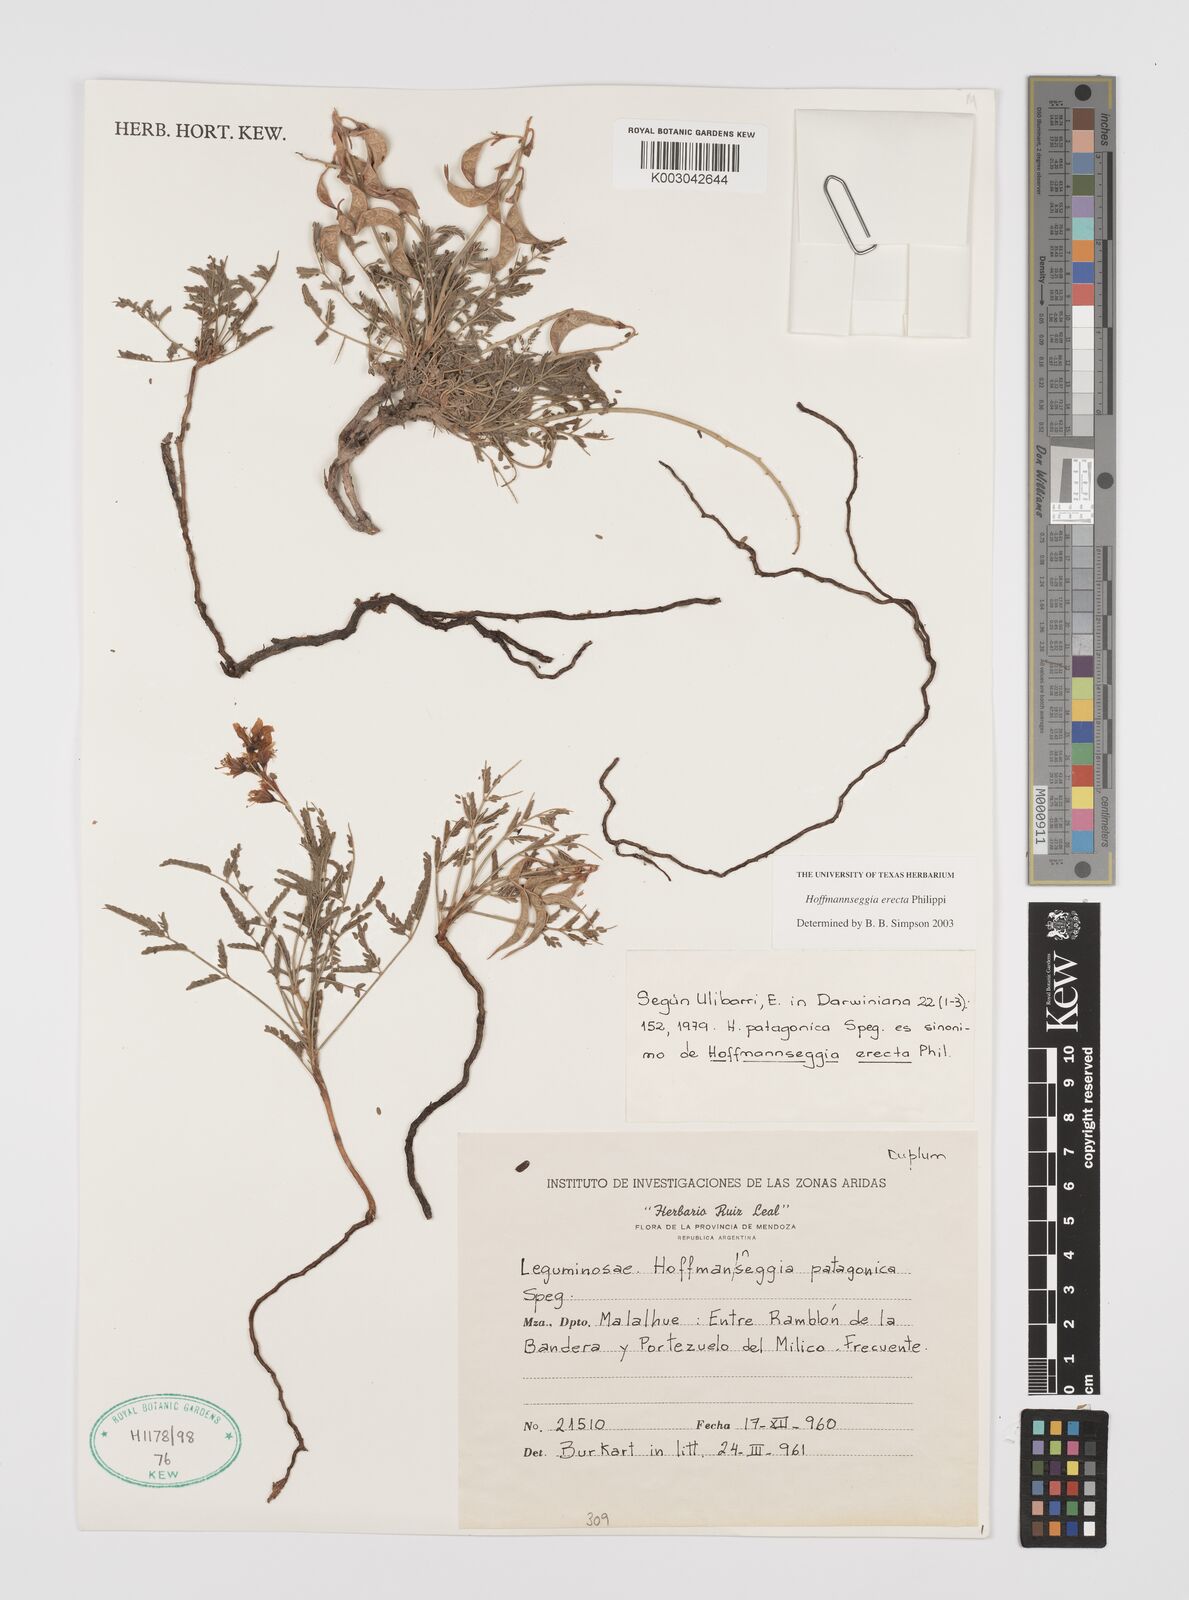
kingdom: Plantae
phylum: Tracheophyta
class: Magnoliopsida
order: Fabales
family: Fabaceae
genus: Hoffmannseggia
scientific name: Hoffmannseggia erecta
